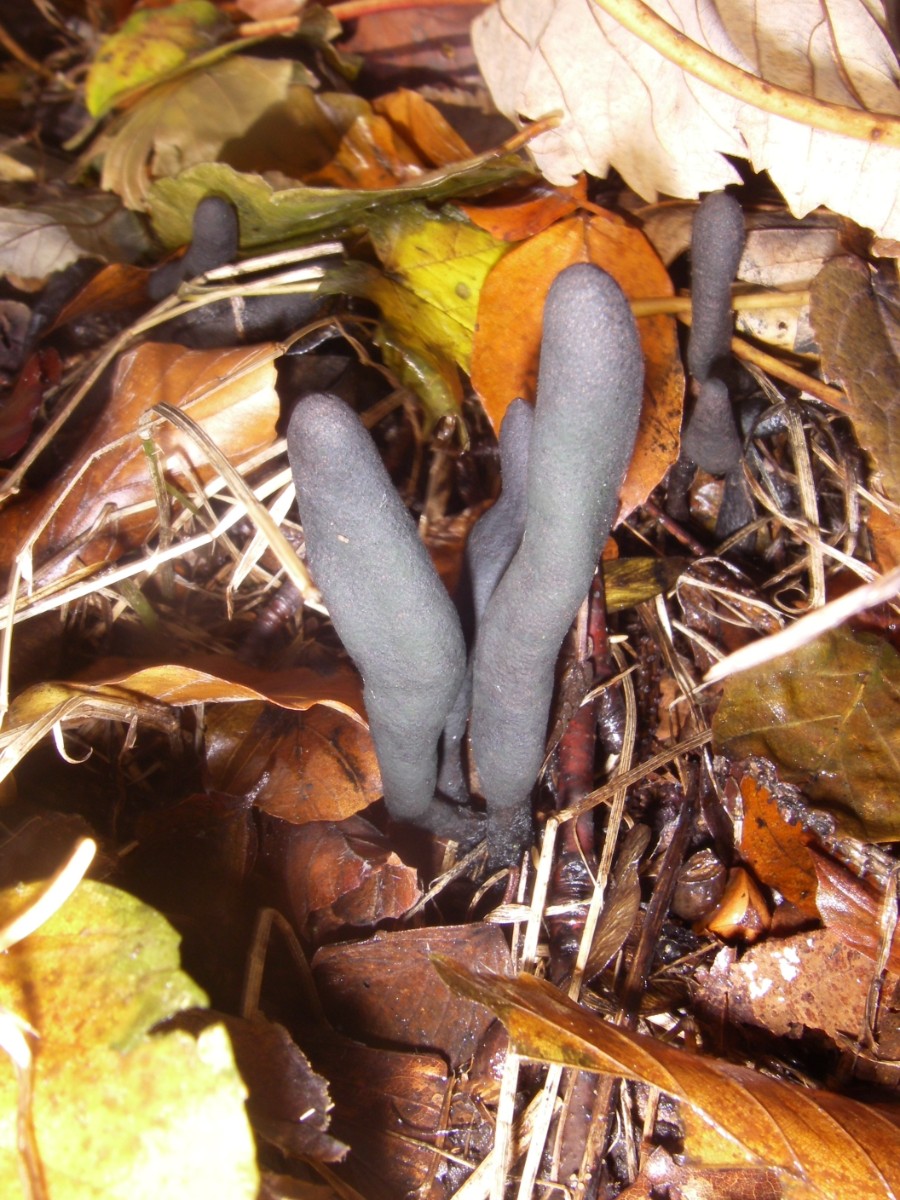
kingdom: Fungi
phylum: Ascomycota
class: Sordariomycetes
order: Xylariales
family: Xylariaceae
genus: Xylaria
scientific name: Xylaria longipes
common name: slank stødsvamp
